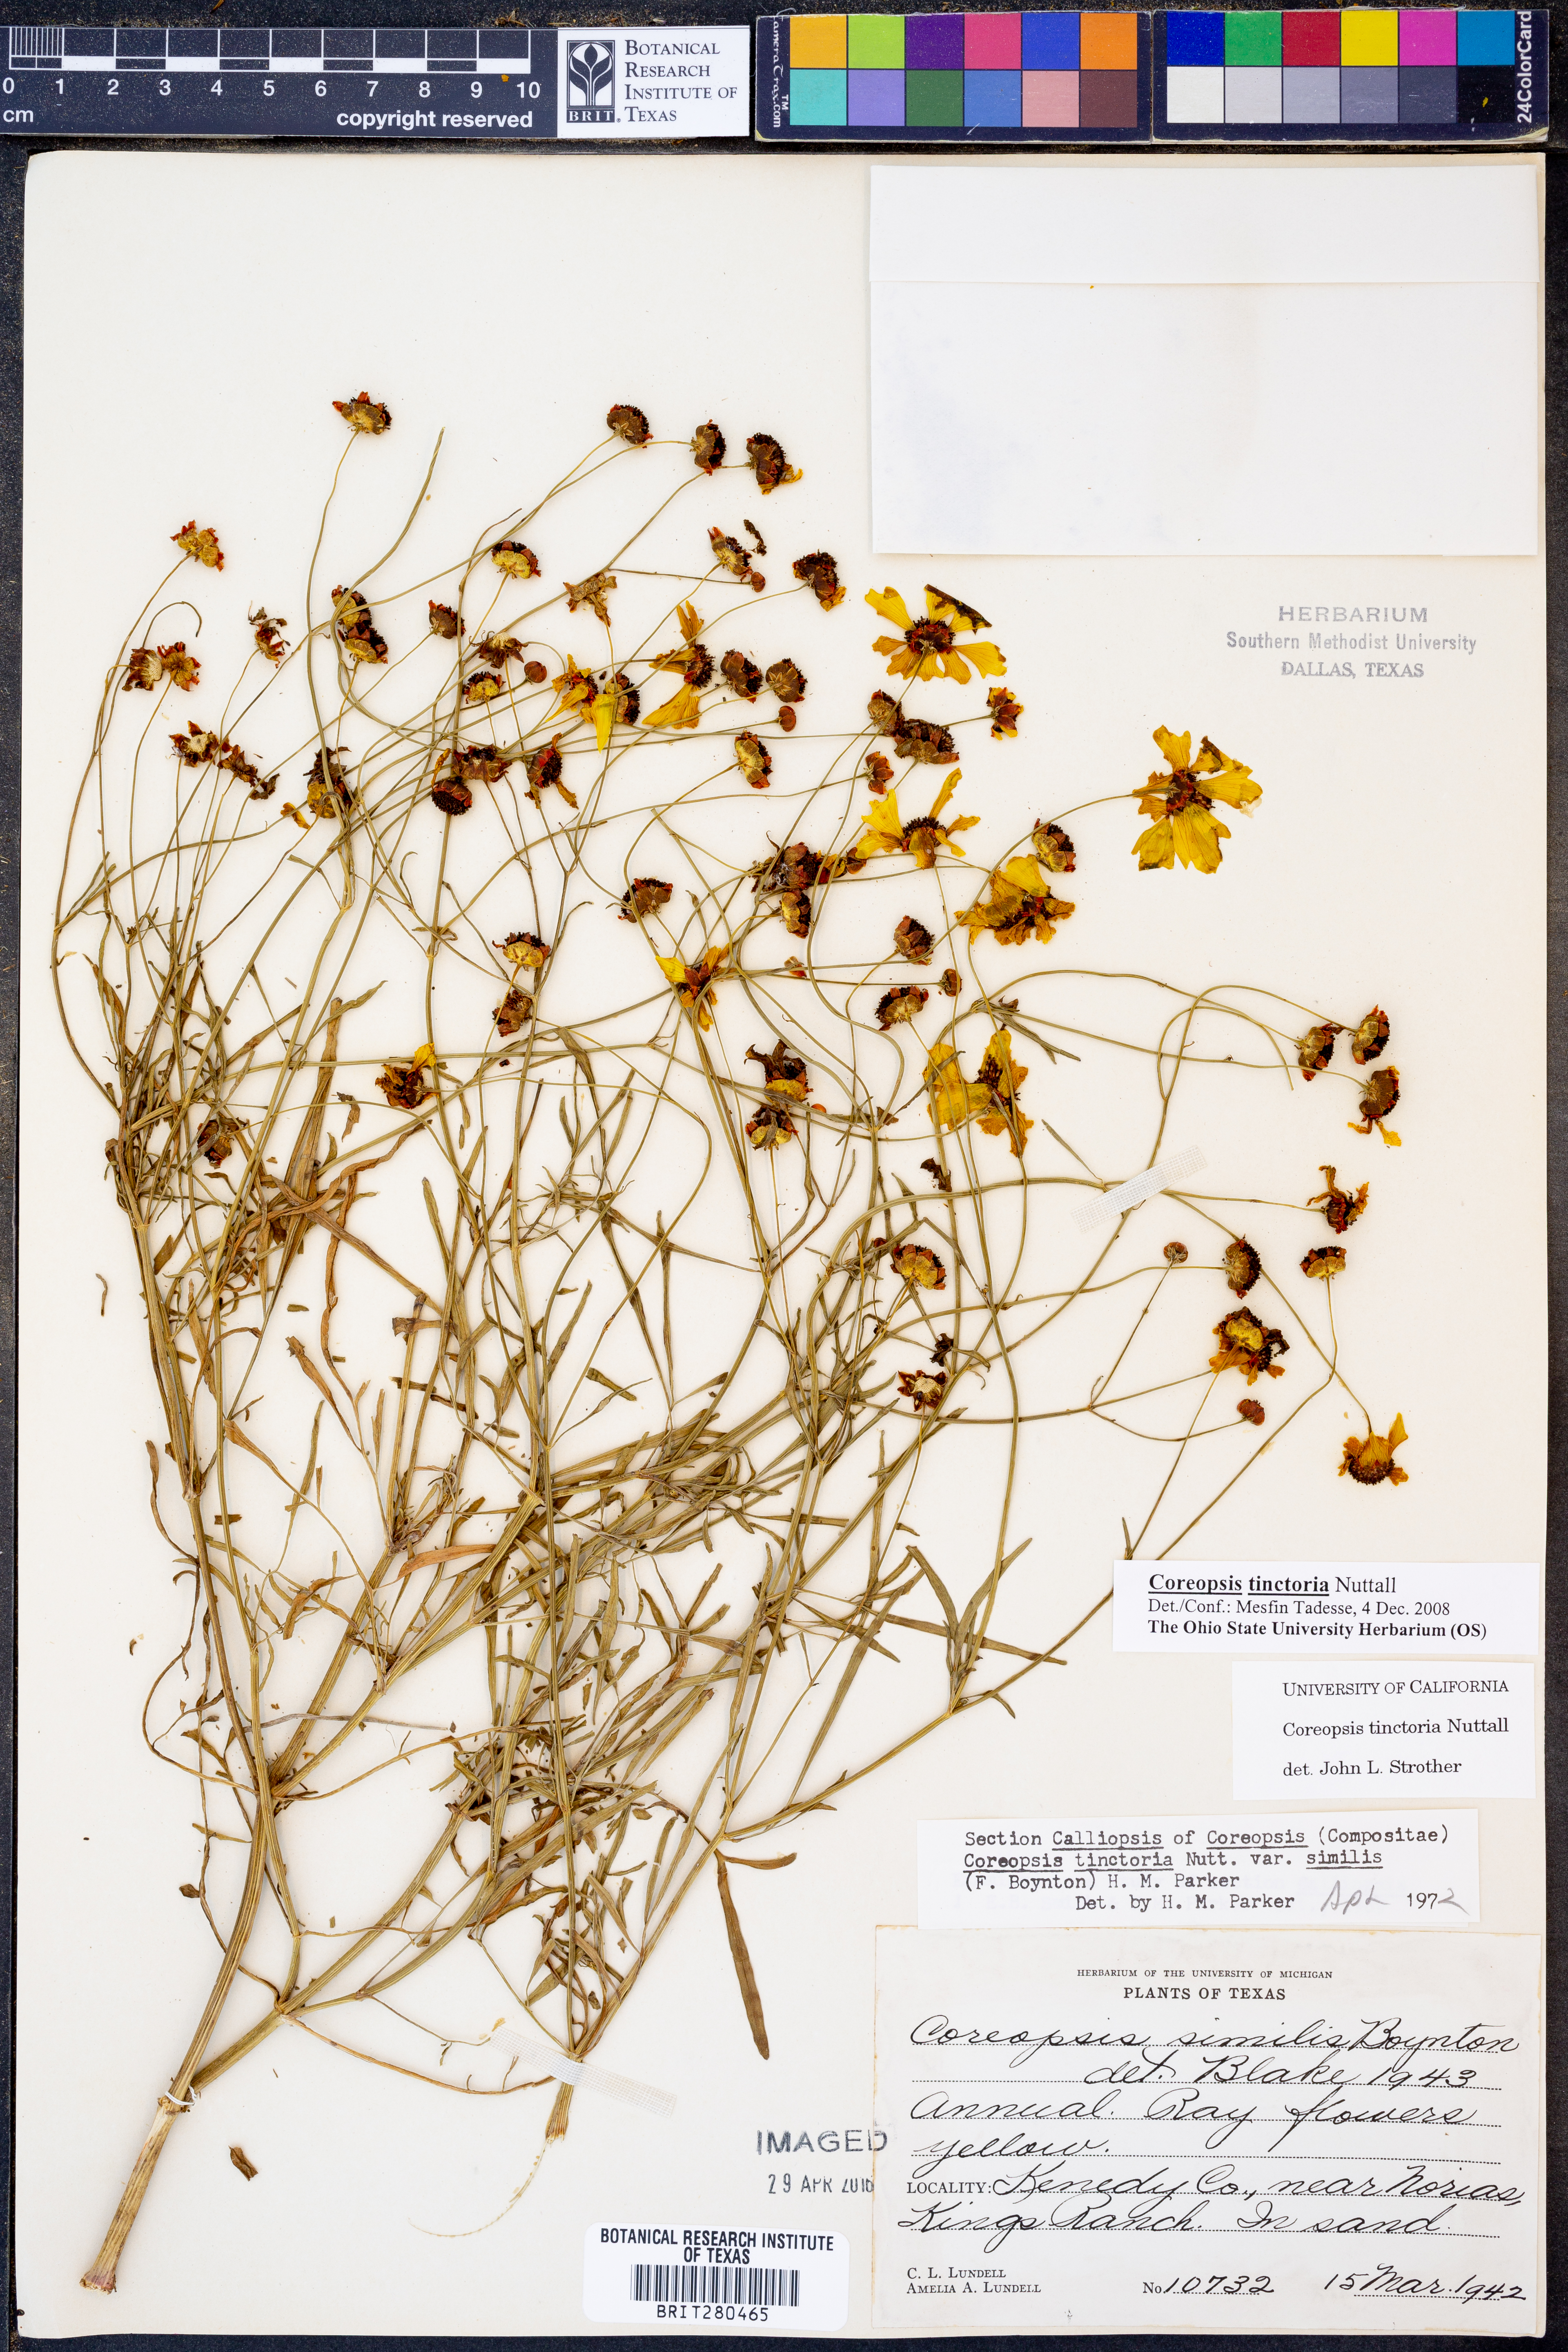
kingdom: Plantae
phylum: Tracheophyta
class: Magnoliopsida
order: Asterales
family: Asteraceae
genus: Coreopsis
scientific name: Coreopsis tinctoria
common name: Garden tickseed
